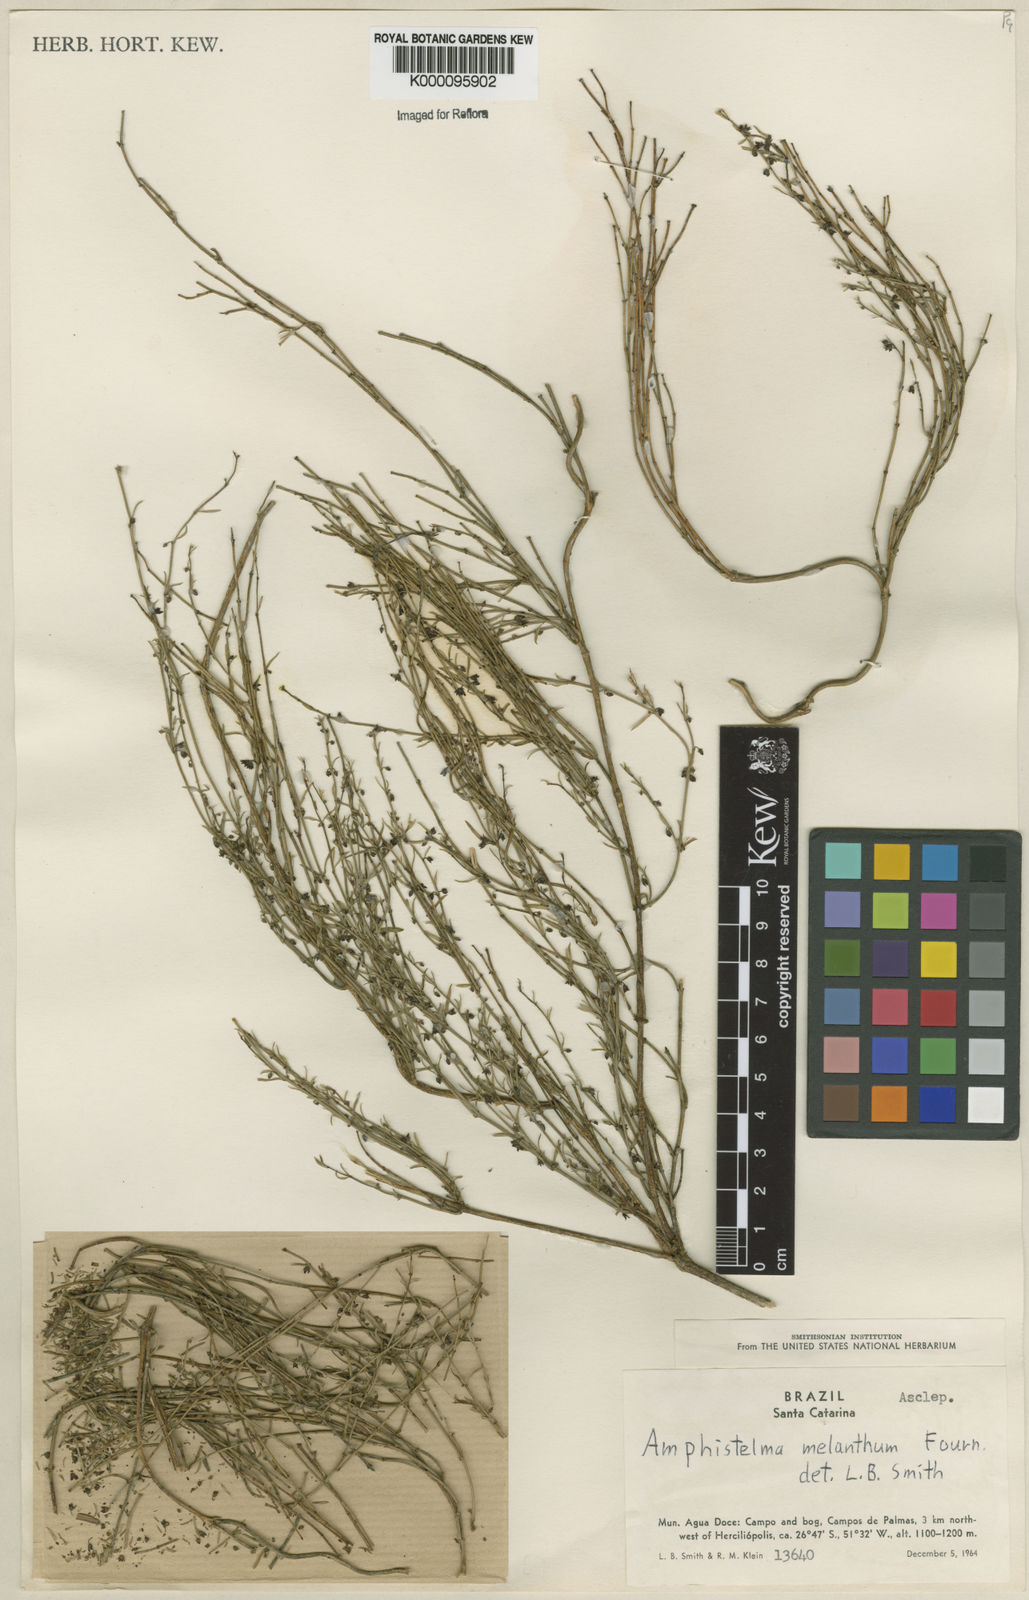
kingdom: Plantae
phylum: Tracheophyta
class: Magnoliopsida
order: Gentianales
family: Apocynaceae
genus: Orthosia
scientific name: Orthosia scoparia
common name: Leafless swallow-wort
